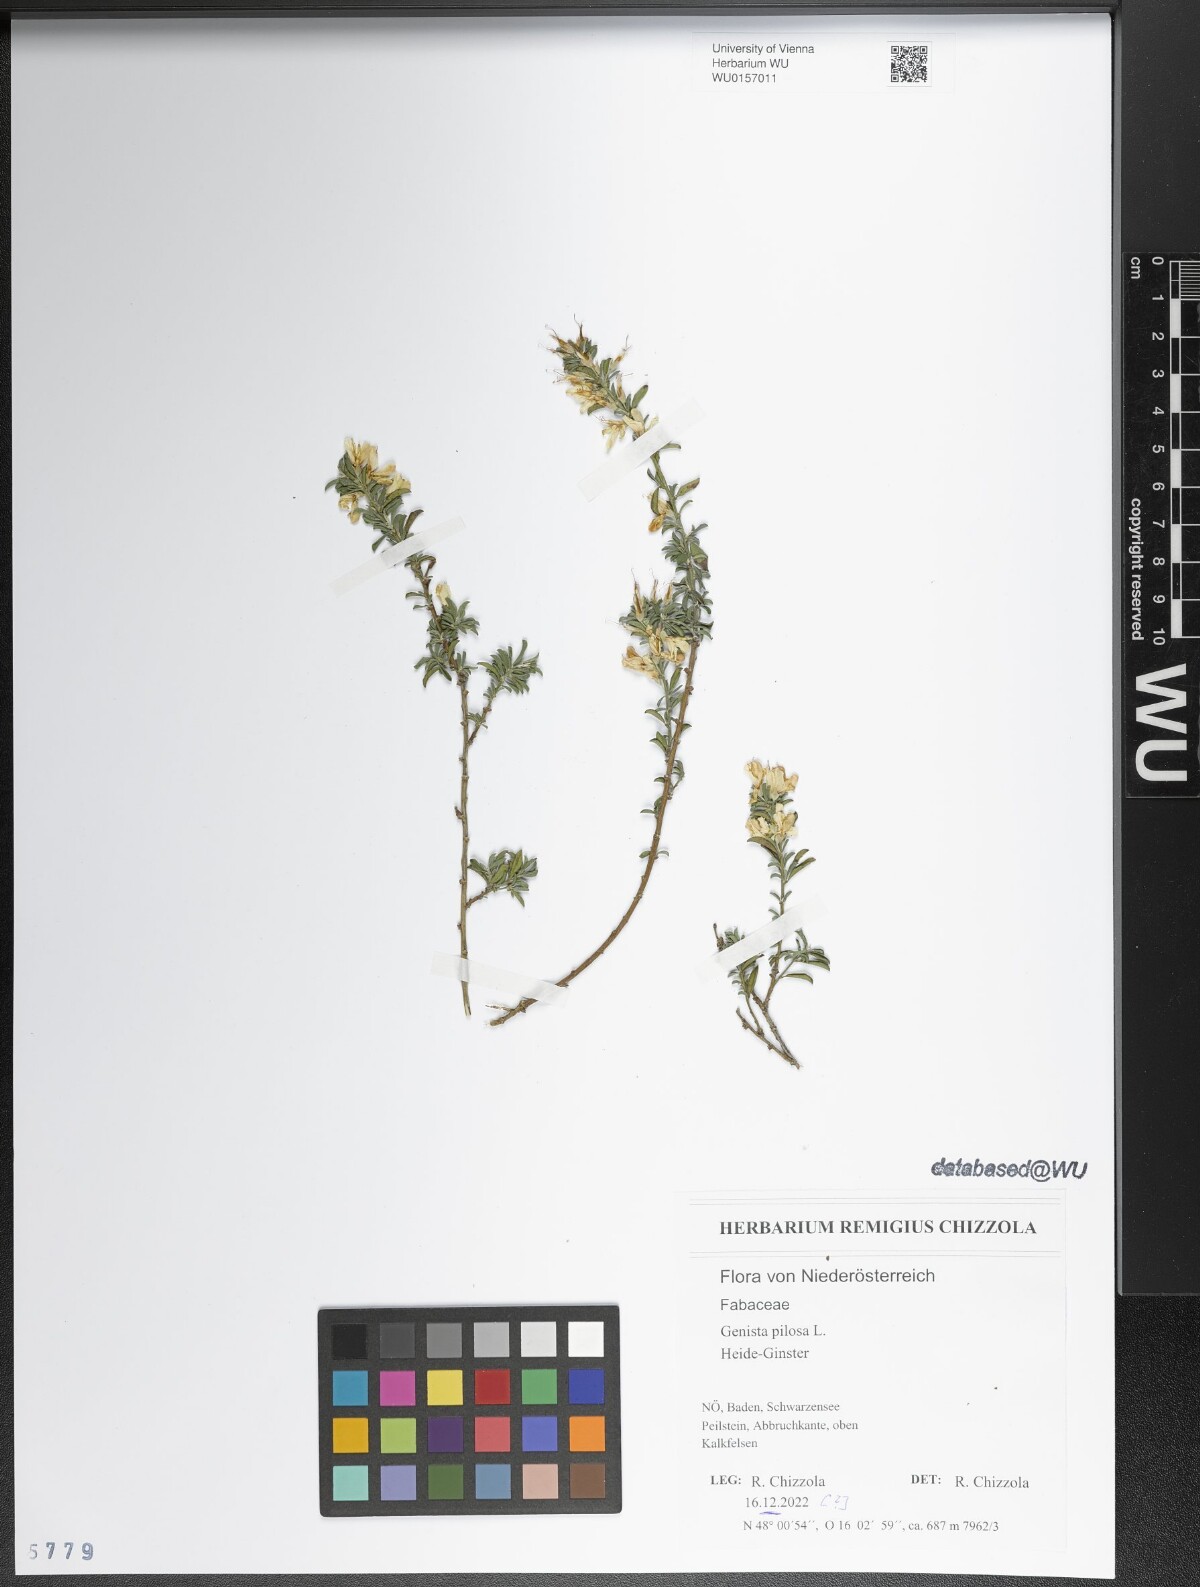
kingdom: Plantae
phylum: Tracheophyta
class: Magnoliopsida
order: Fabales
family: Fabaceae
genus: Genista
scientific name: Genista pilosa
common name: Hairy greenweed
